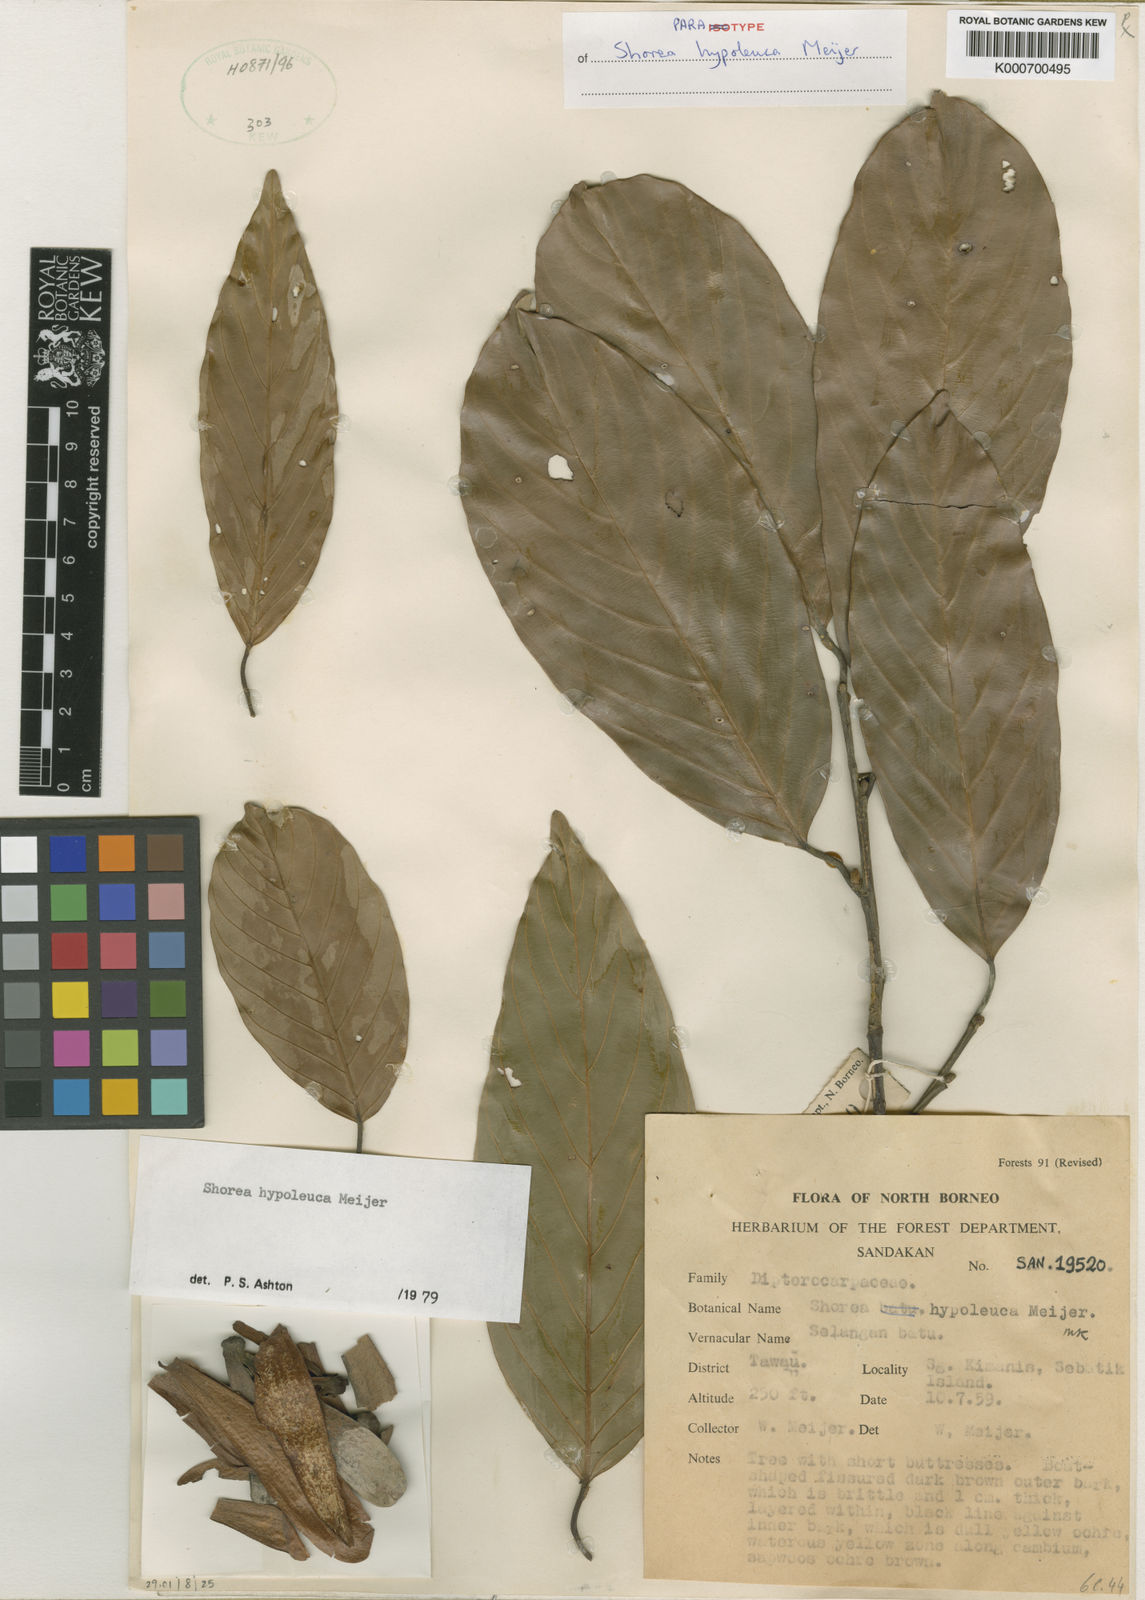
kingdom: Plantae
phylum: Tracheophyta
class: Magnoliopsida
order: Malvales
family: Dipterocarpaceae
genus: Shorea
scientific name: Shorea hypoleuca
